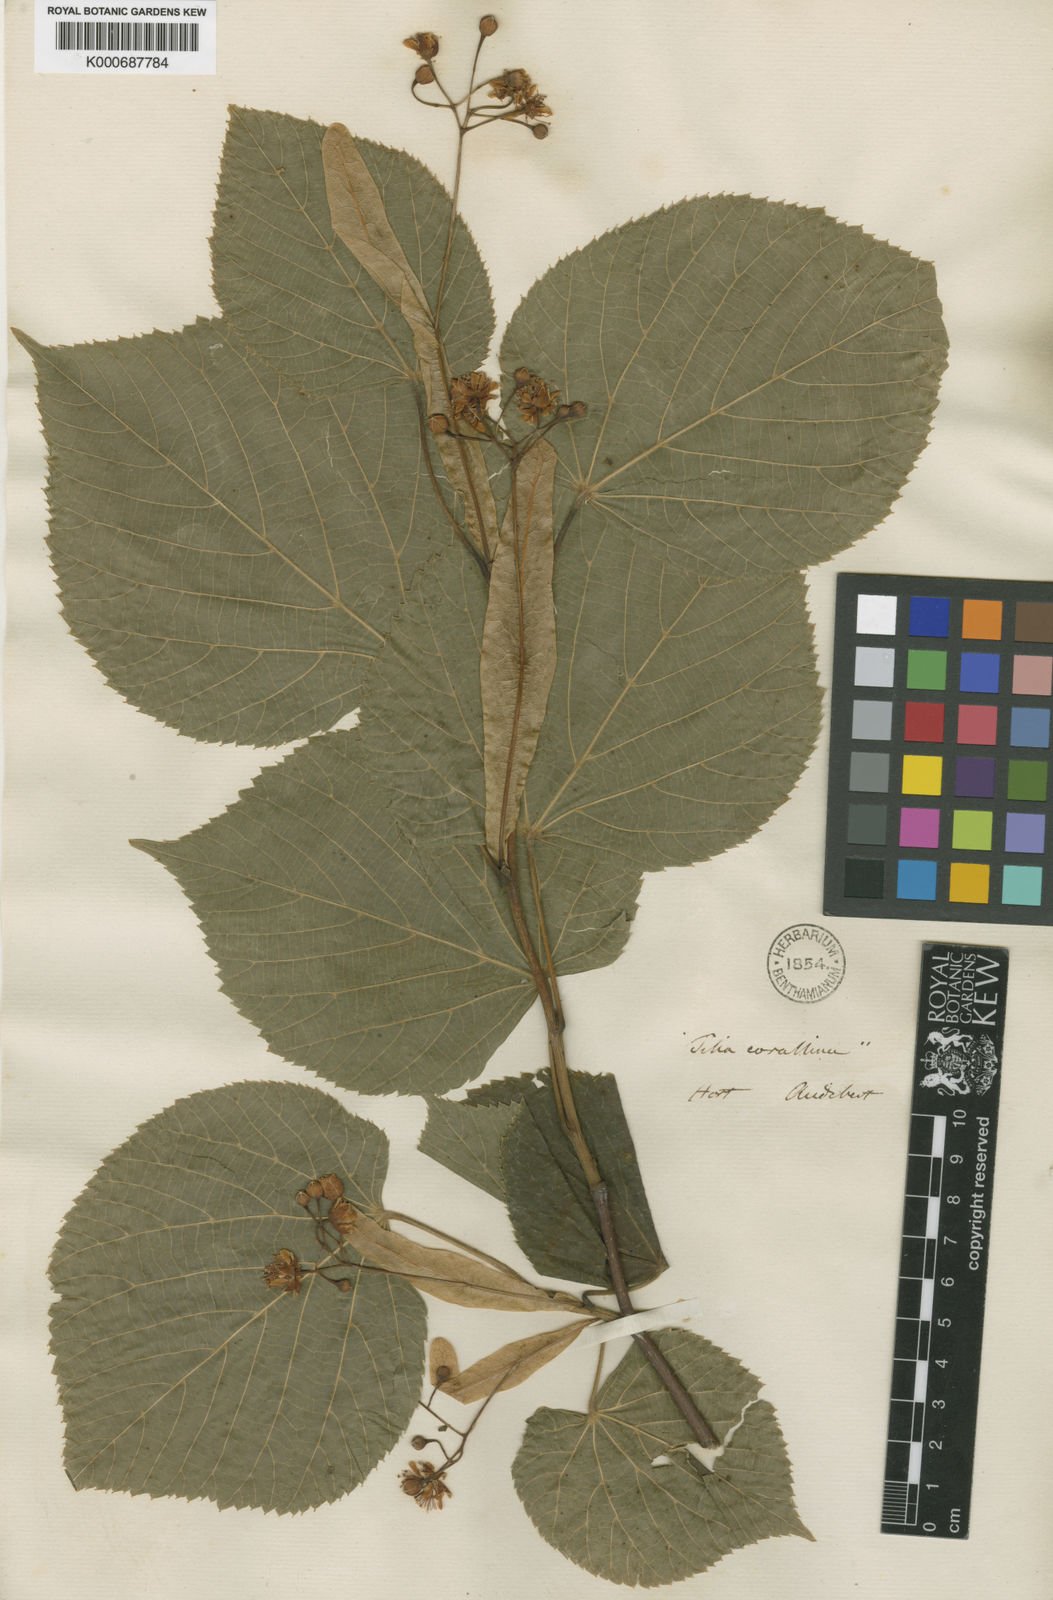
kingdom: Plantae
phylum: Tracheophyta
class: Magnoliopsida
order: Malvales
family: Malvaceae
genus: Tilia
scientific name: Tilia platyphyllos
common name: Large-leaved lime
